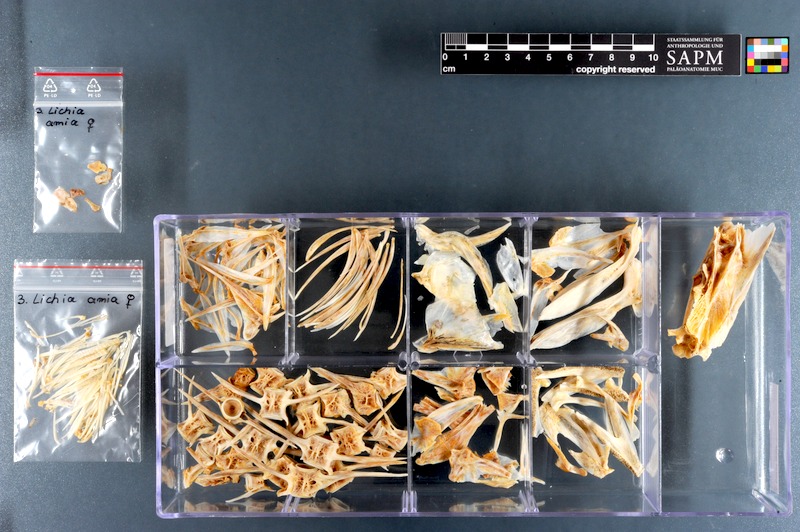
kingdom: Animalia
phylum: Chordata
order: Perciformes
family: Carangidae
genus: Lichia
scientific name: Lichia amia
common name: Leerfish
